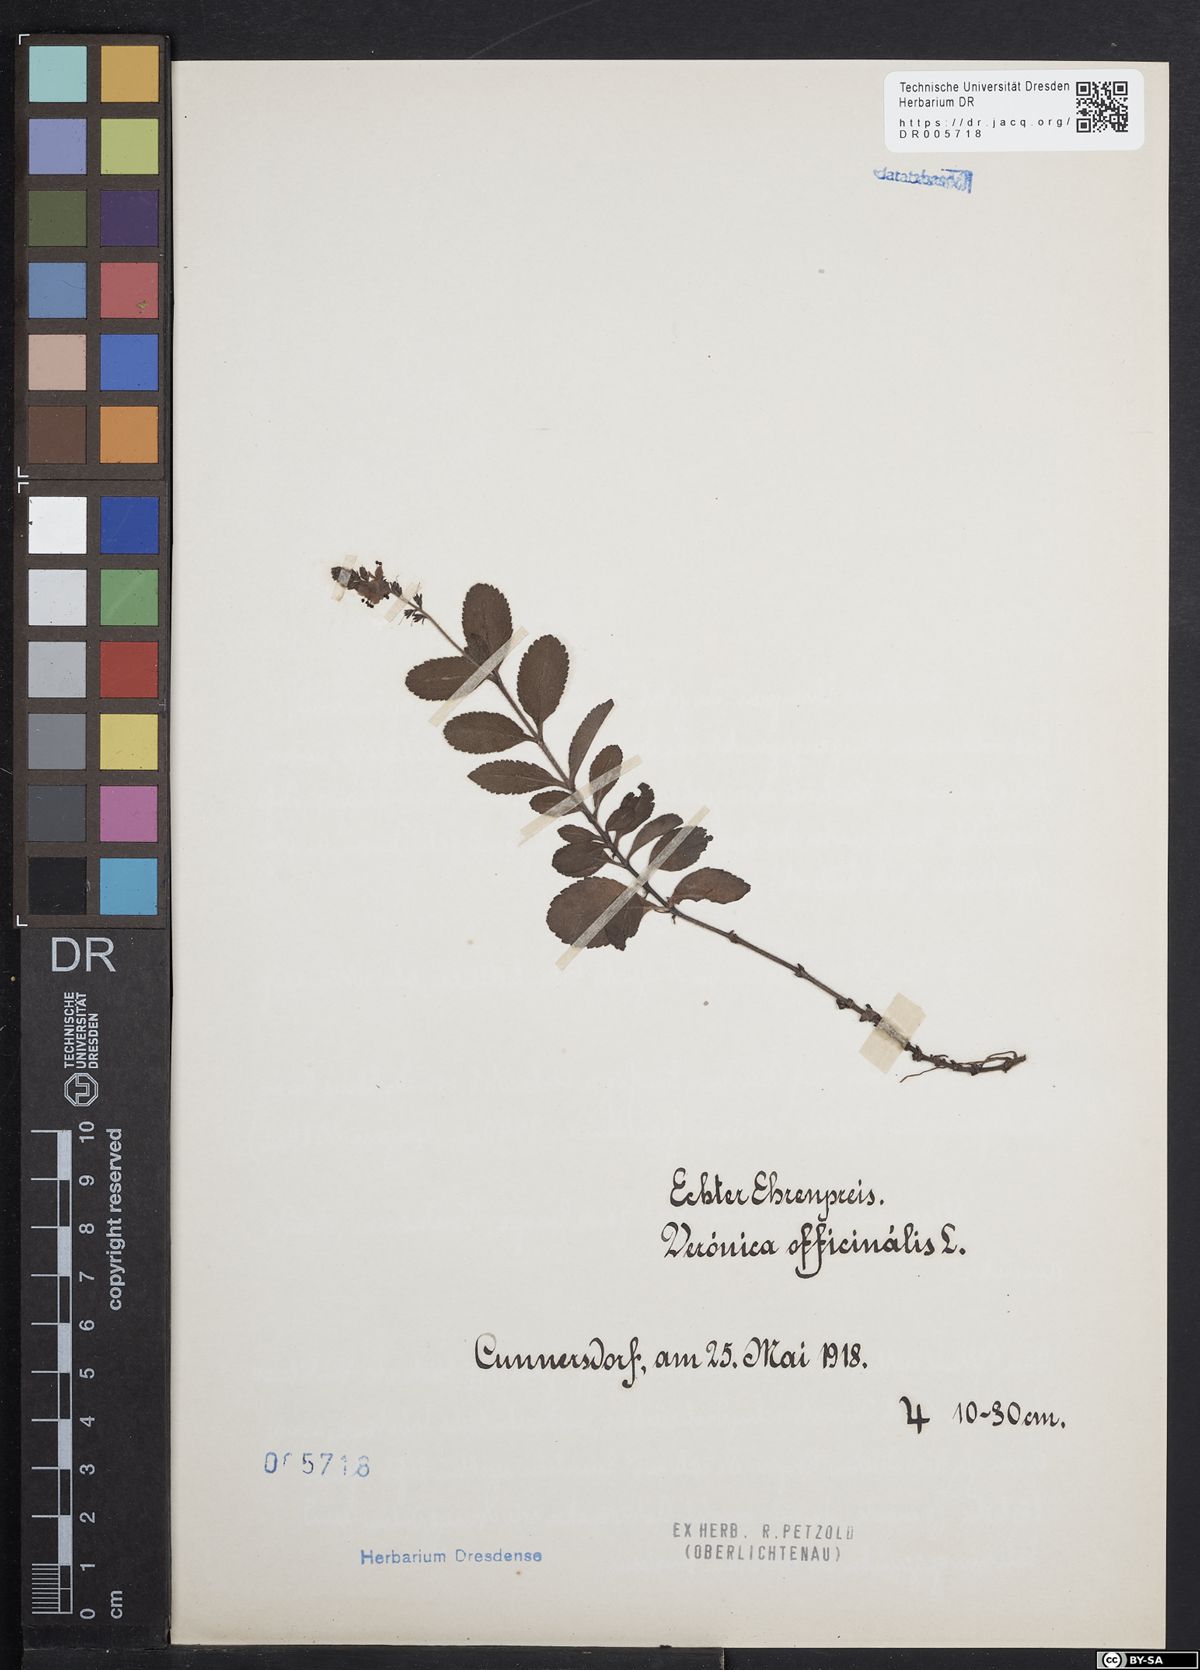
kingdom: Plantae
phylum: Tracheophyta
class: Magnoliopsida
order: Lamiales
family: Plantaginaceae
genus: Veronica
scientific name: Veronica officinalis
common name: Common speedwell
